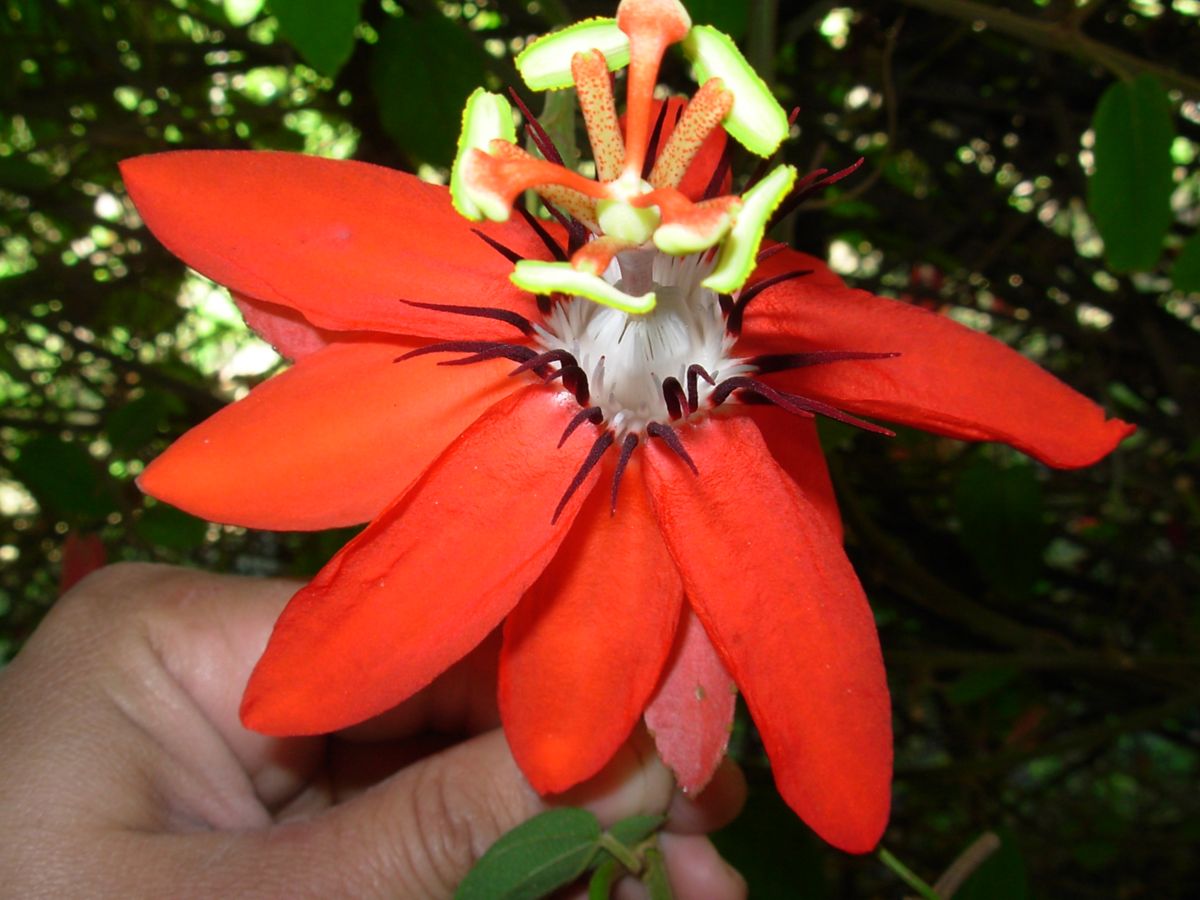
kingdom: Plantae
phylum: Tracheophyta
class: Magnoliopsida
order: Malpighiales
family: Passifloraceae
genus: Passiflora
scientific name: Passiflora miniata
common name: Red granadilla
